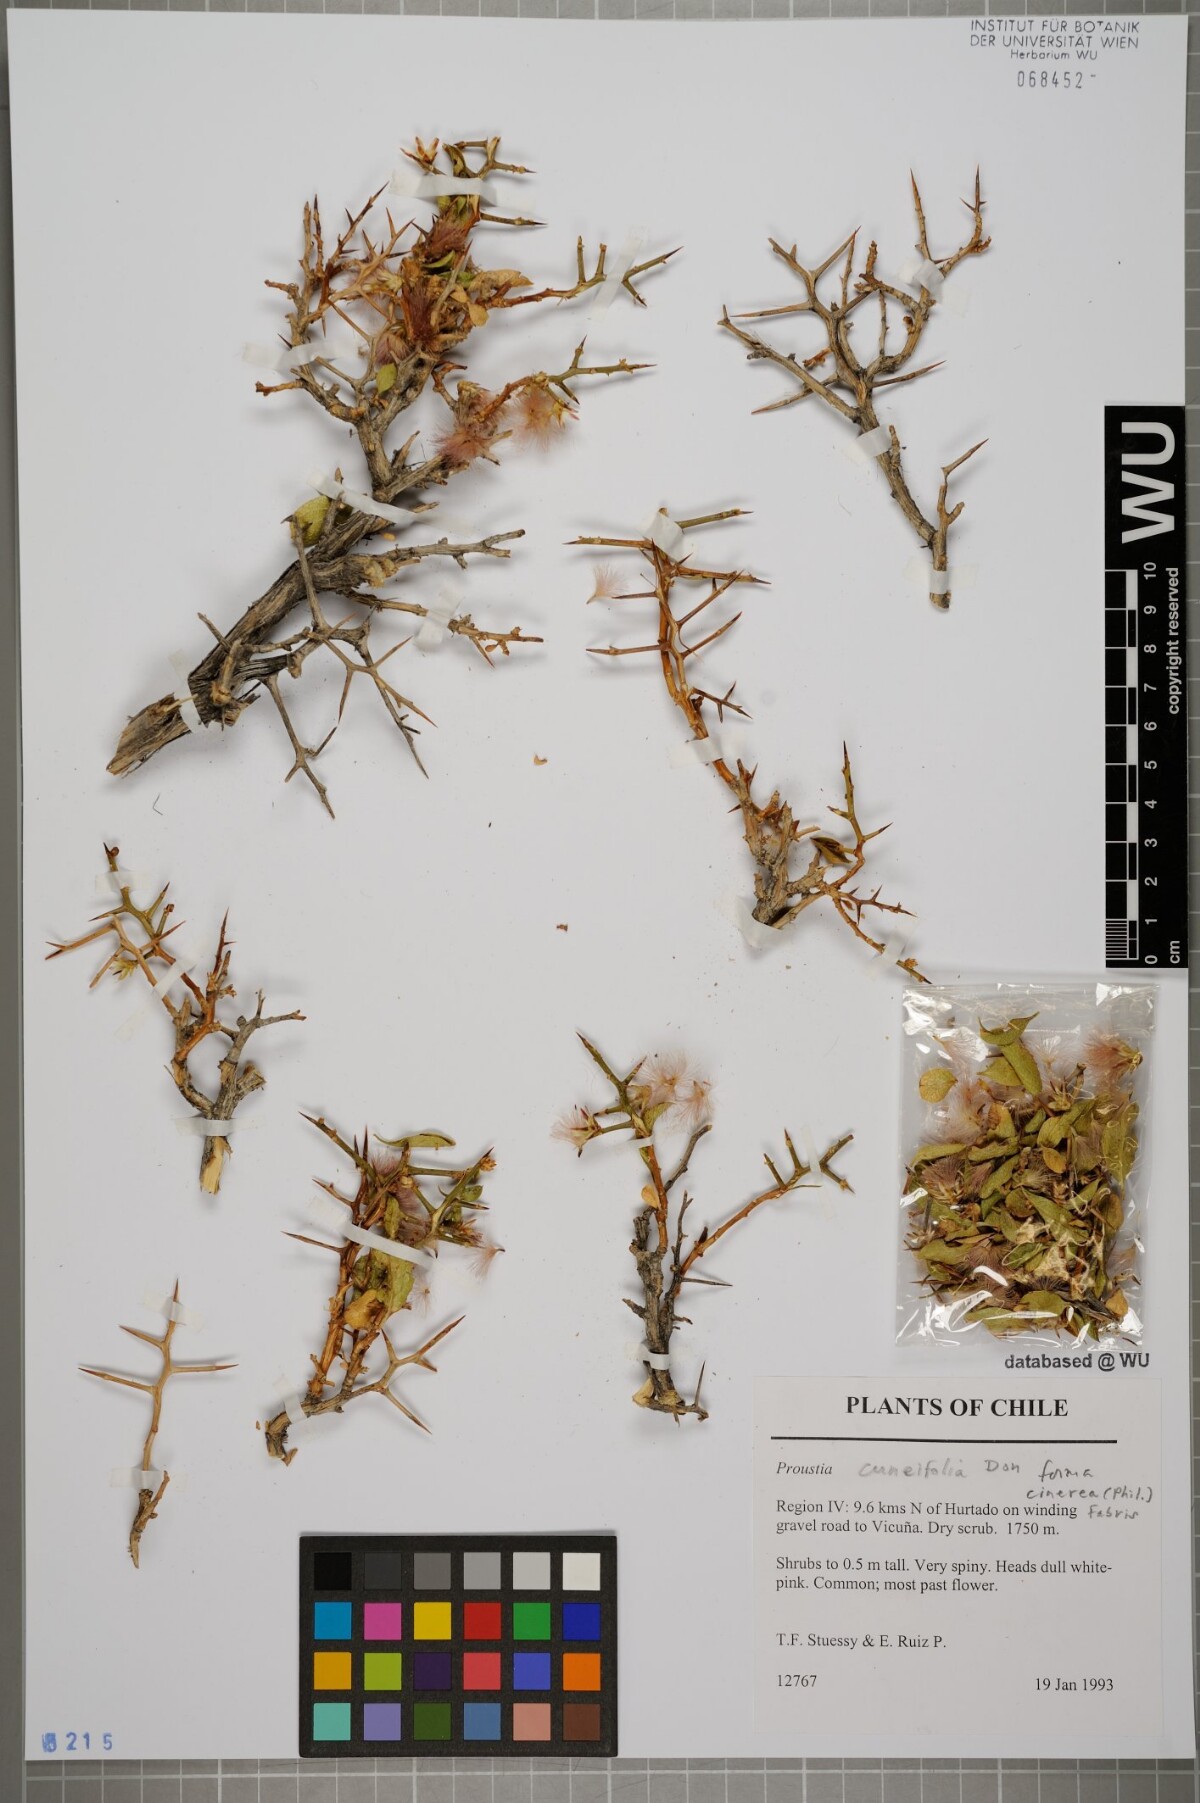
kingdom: Plantae
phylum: Tracheophyta
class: Magnoliopsida
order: Asterales
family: Asteraceae
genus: Proustia
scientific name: Proustia cuneifolia
